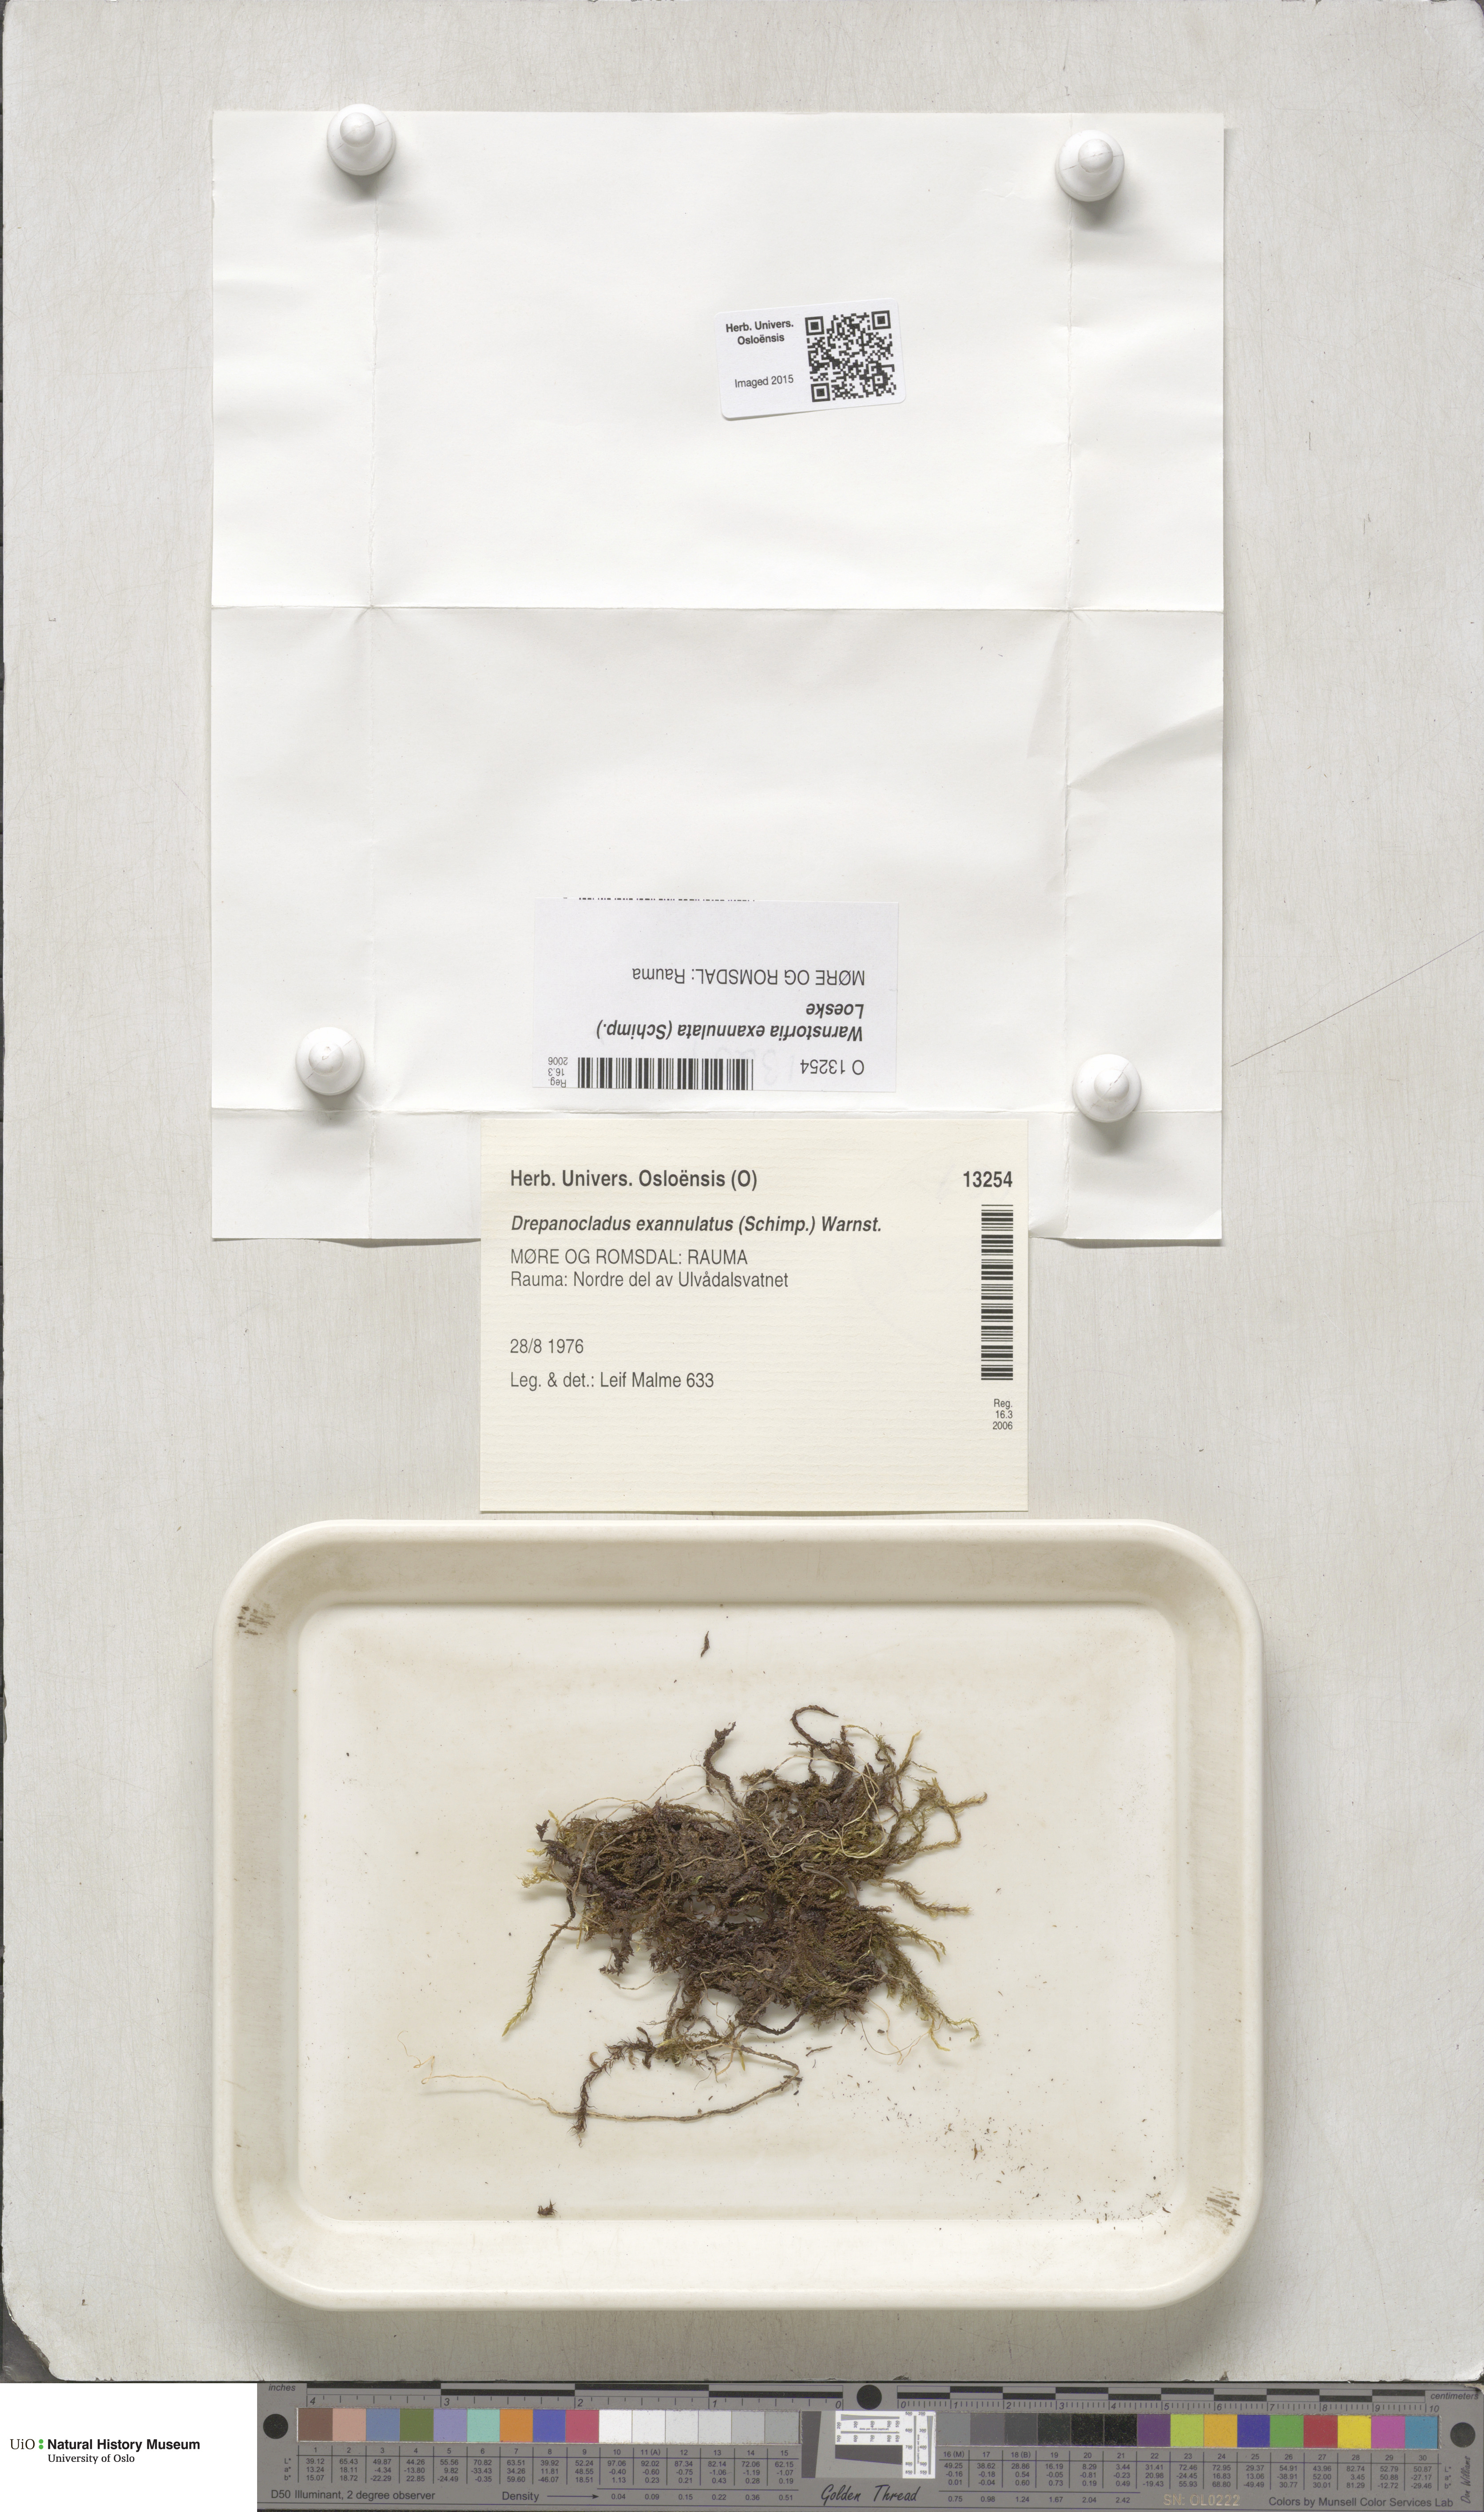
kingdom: Plantae
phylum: Bryophyta
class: Bryopsida
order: Hypnales
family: Calliergonaceae
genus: Sarmentypnum
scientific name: Sarmentypnum exannulatum
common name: Ringless spoon moss
